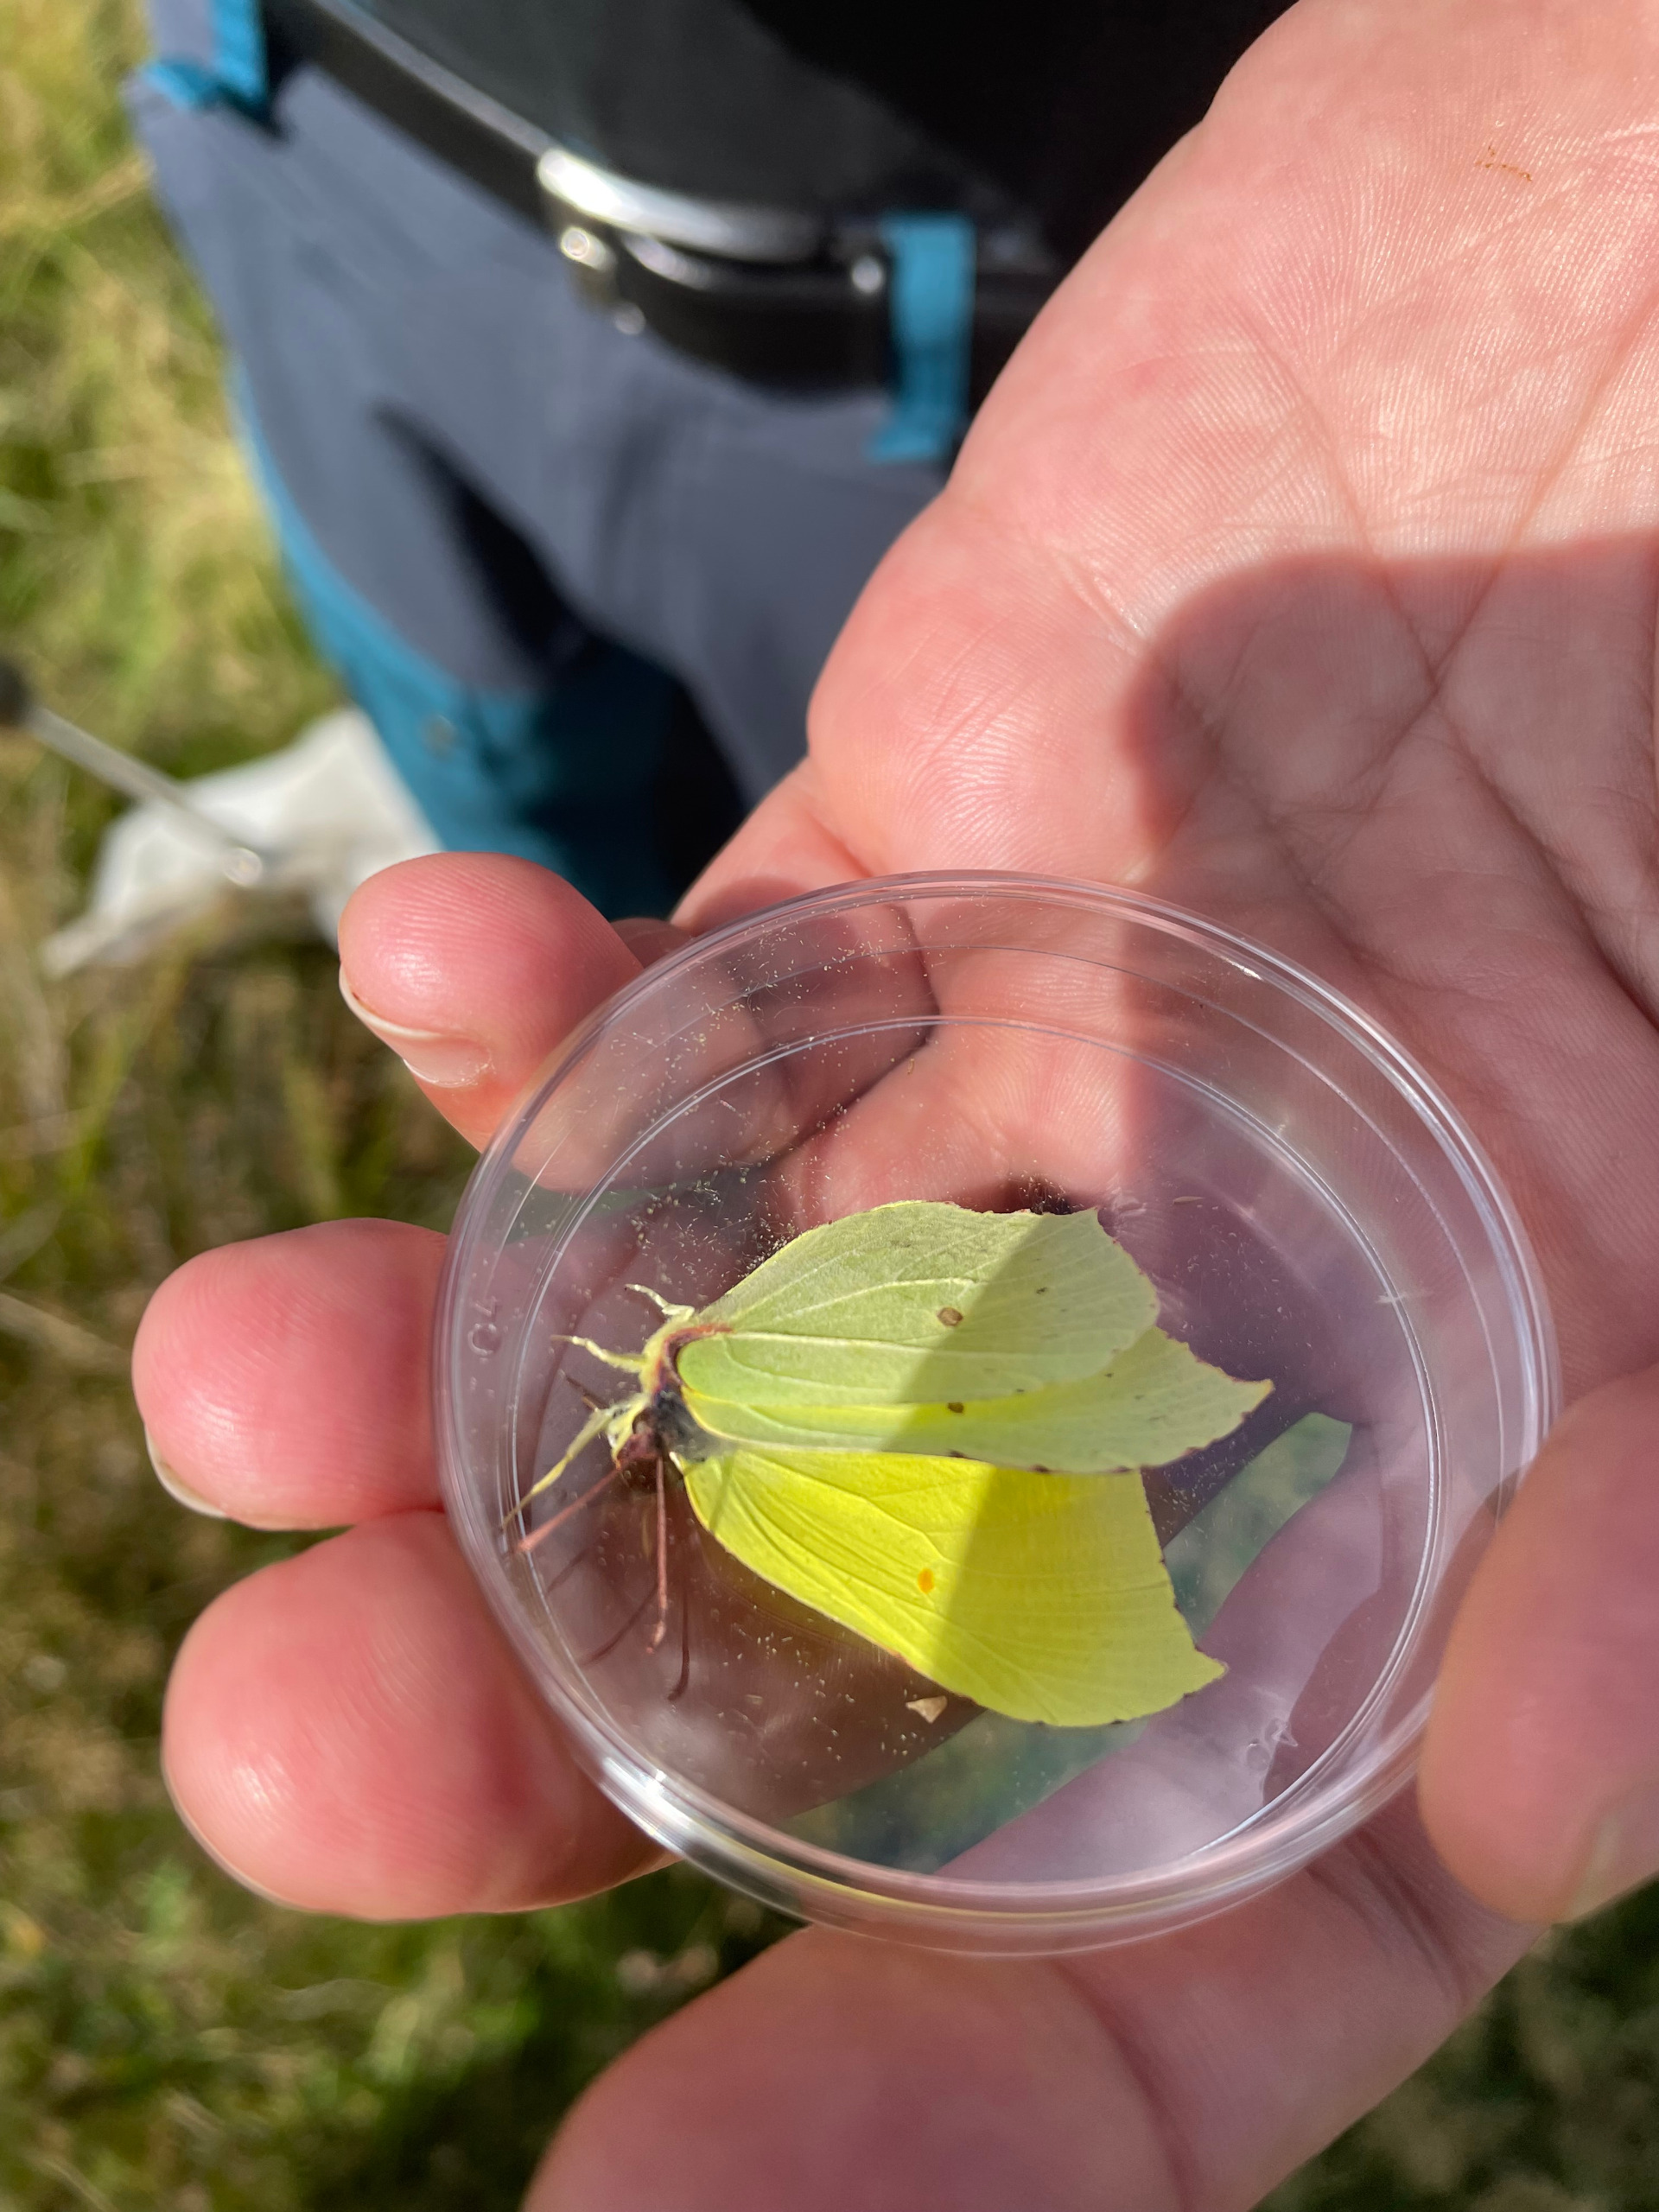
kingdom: Animalia
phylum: Arthropoda
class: Insecta
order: Lepidoptera
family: Pieridae
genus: Gonepteryx
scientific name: Gonepteryx rhamni
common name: Citronsommerfugl
